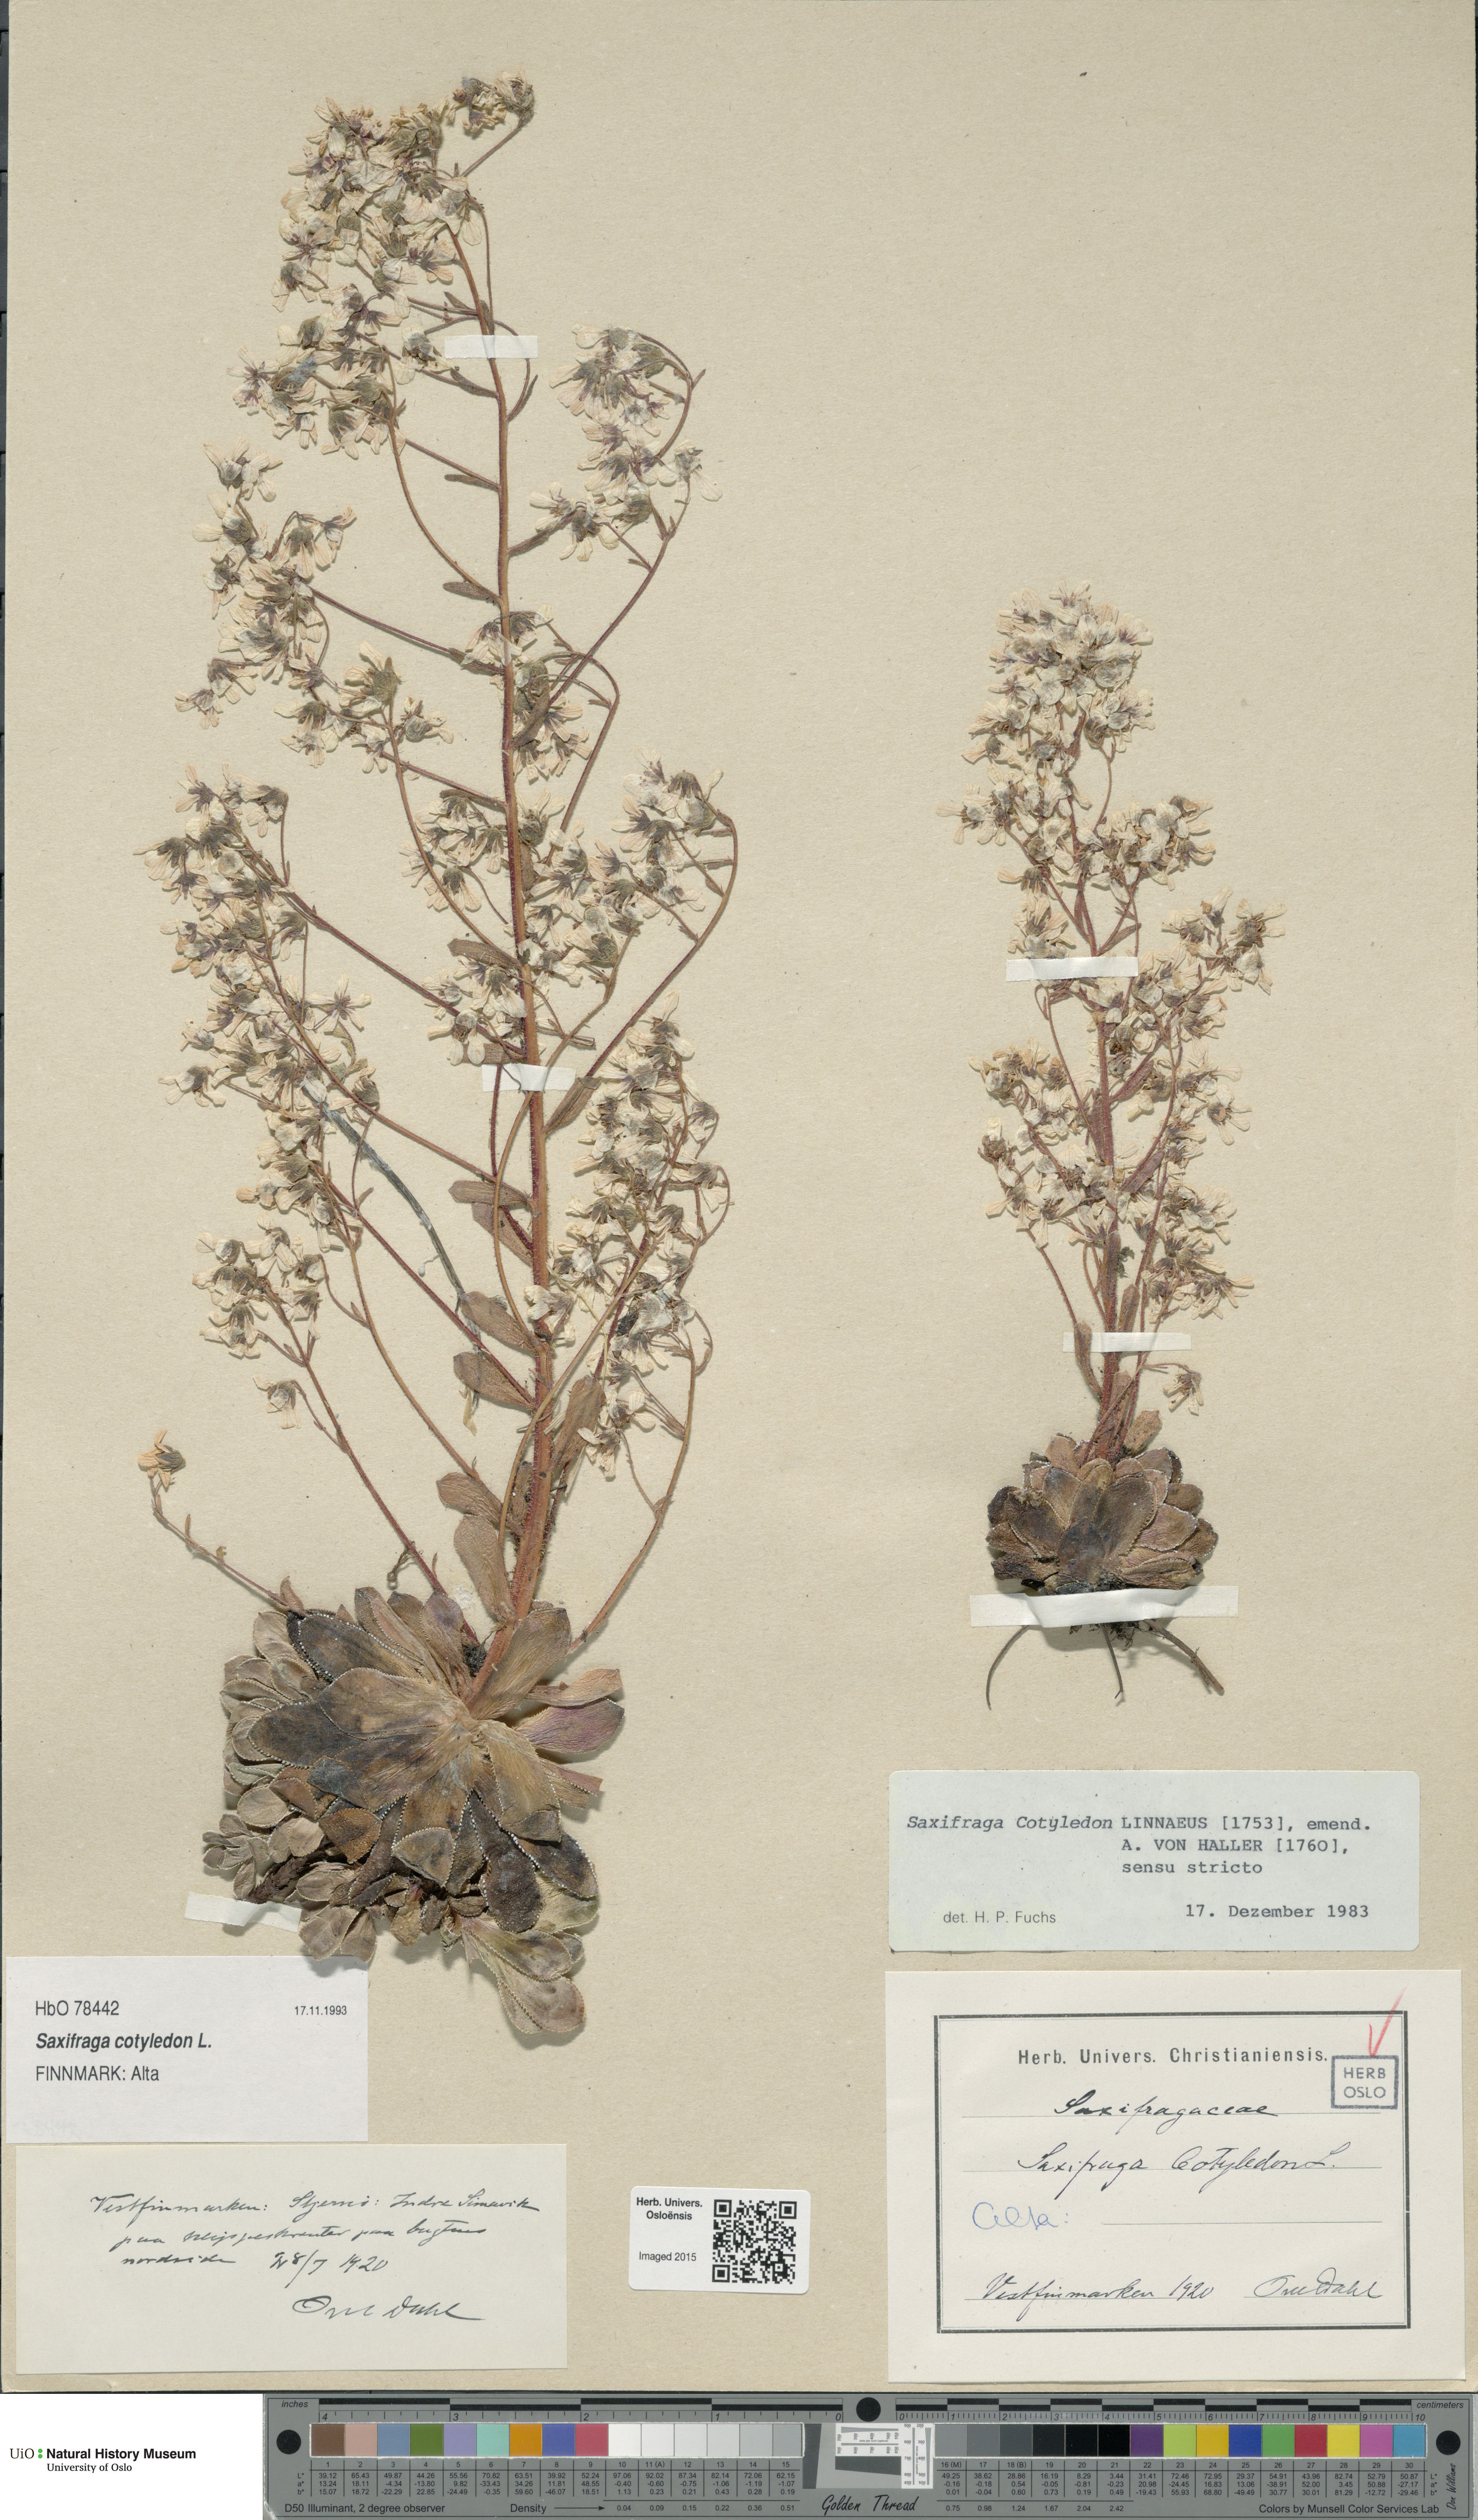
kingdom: Plantae
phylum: Tracheophyta
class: Magnoliopsida
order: Saxifragales
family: Saxifragaceae
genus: Saxifraga
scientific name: Saxifraga cotyledon
